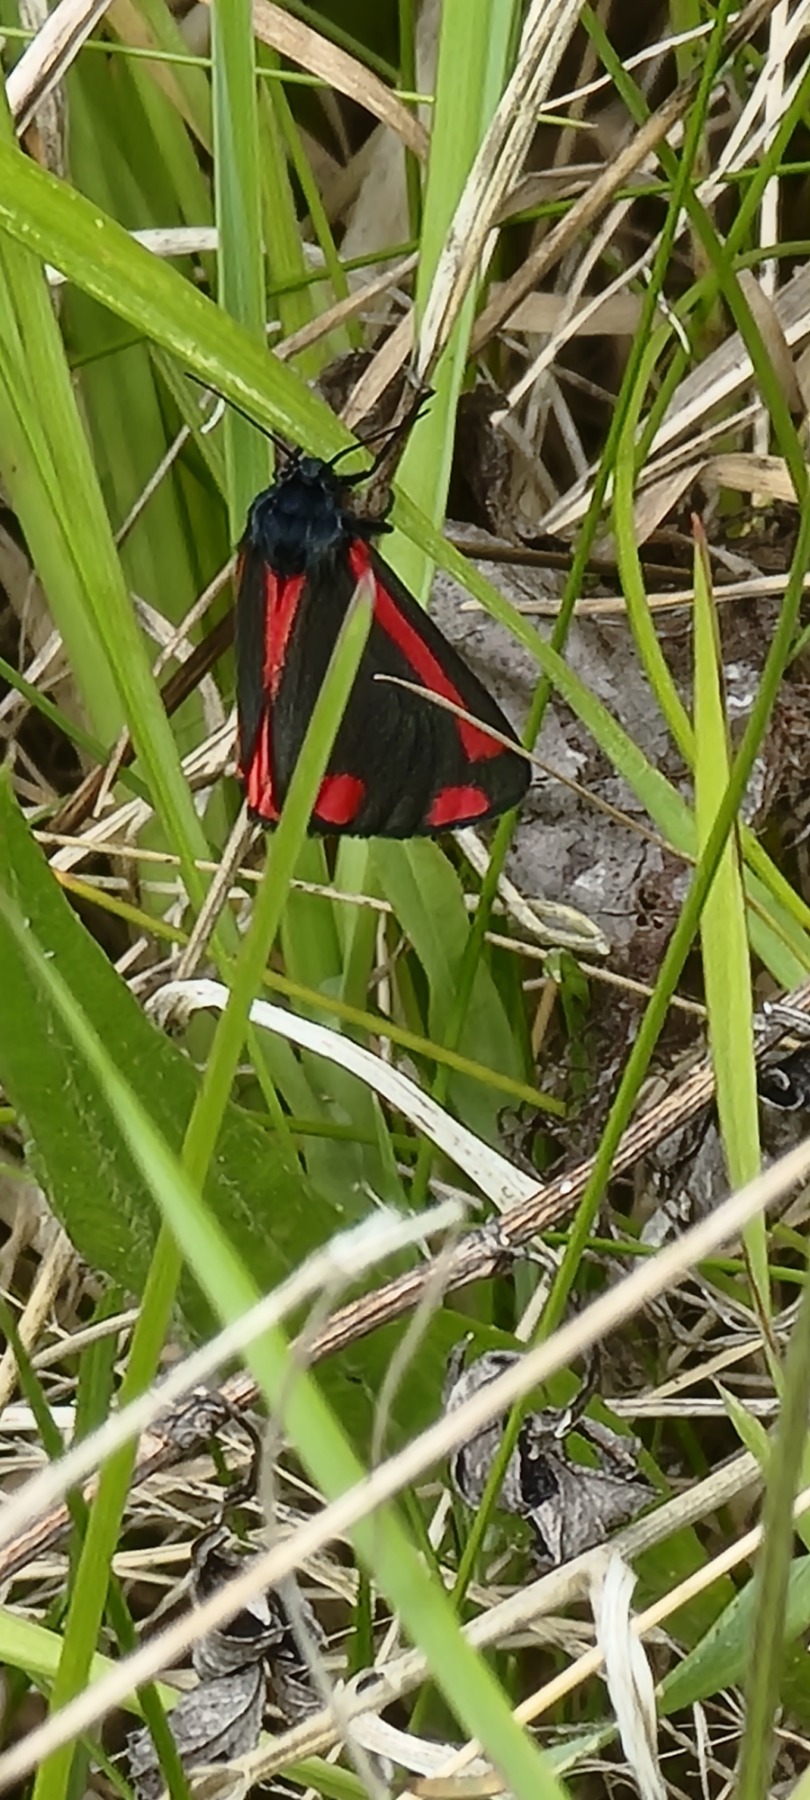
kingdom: Animalia
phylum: Arthropoda
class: Insecta
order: Lepidoptera
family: Erebidae
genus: Tyria
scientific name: Tyria jacobaeae
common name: Blodplet
